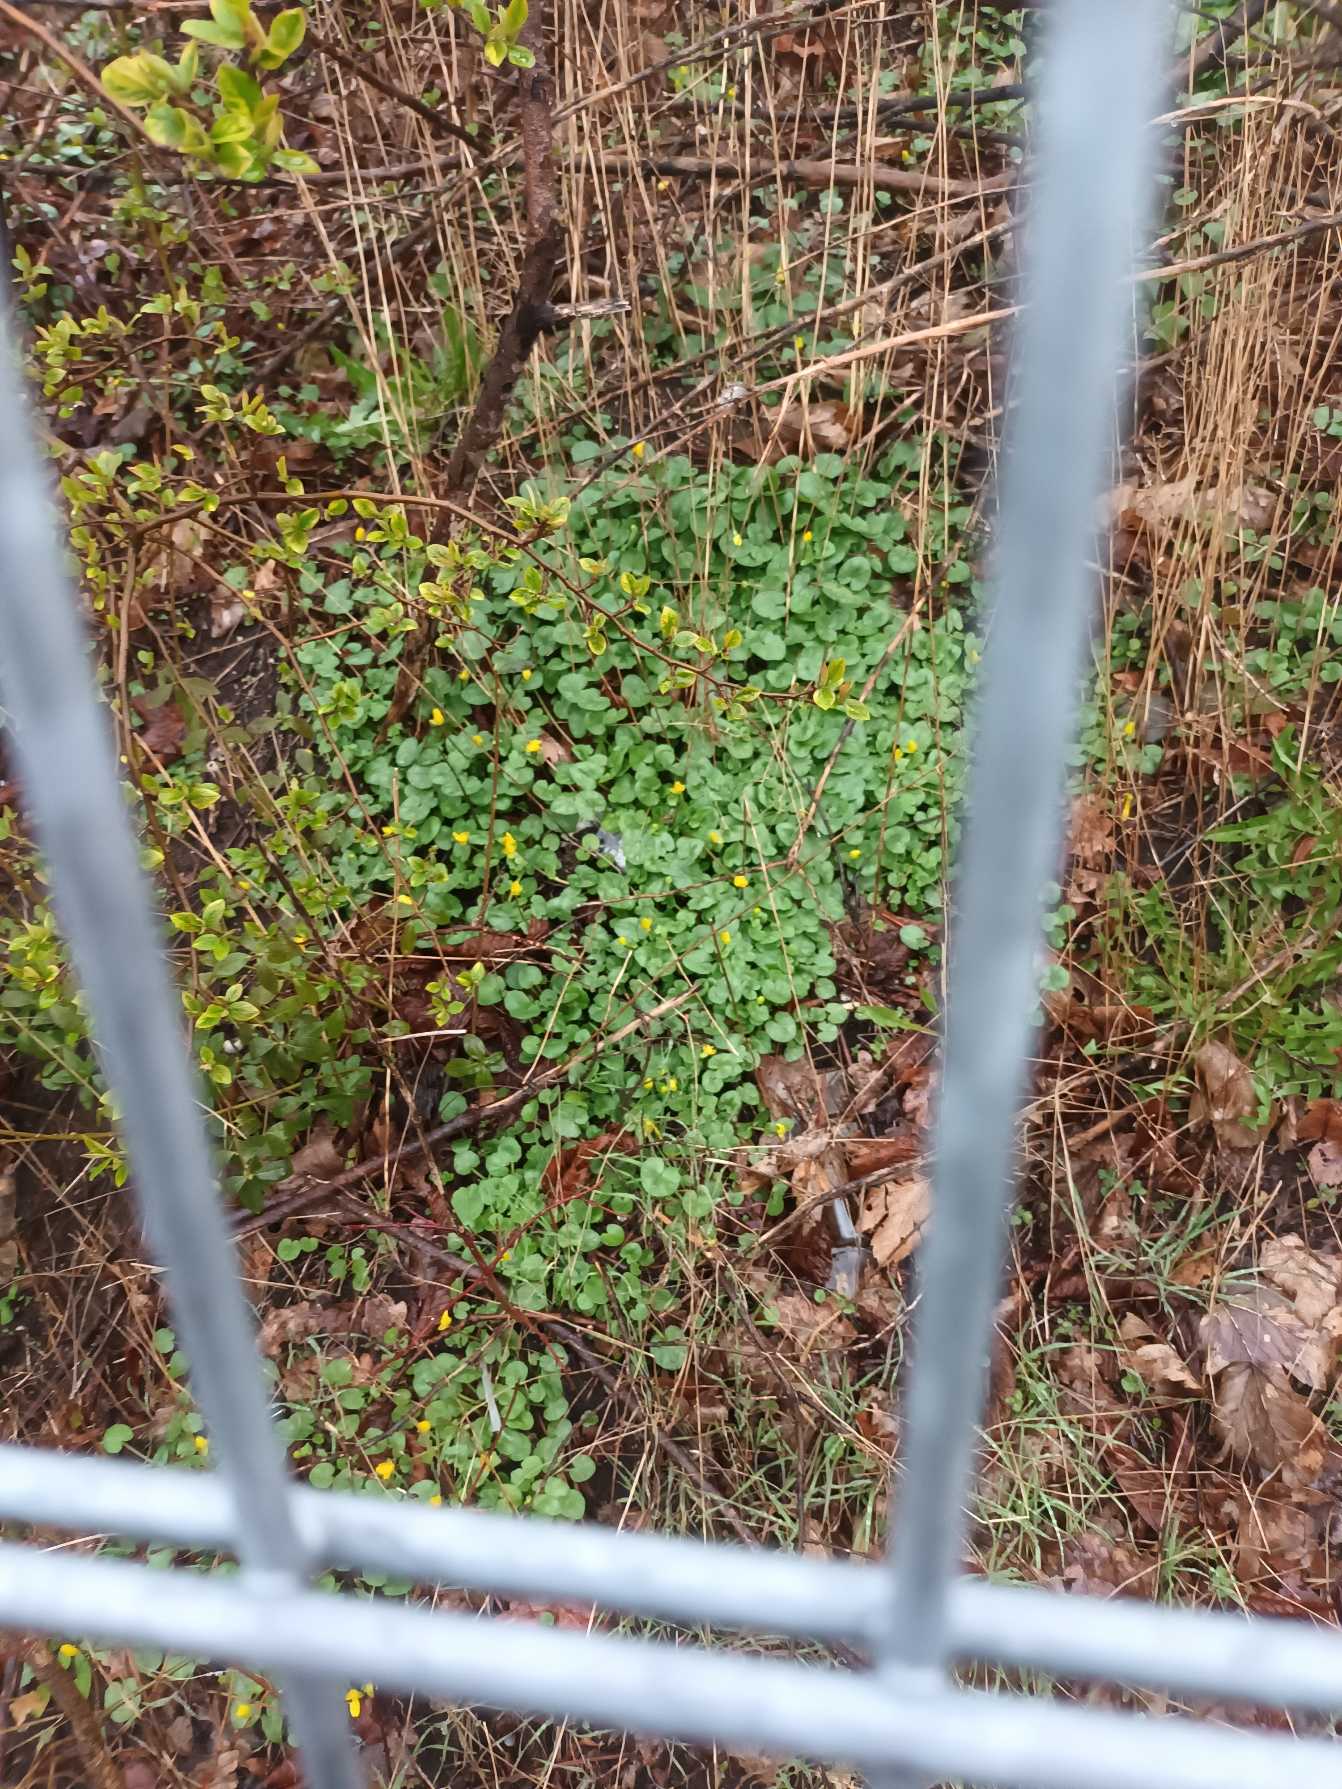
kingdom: Plantae
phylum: Tracheophyta
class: Magnoliopsida
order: Ranunculales
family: Ranunculaceae
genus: Ficaria
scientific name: Ficaria verna
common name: Vorterod
